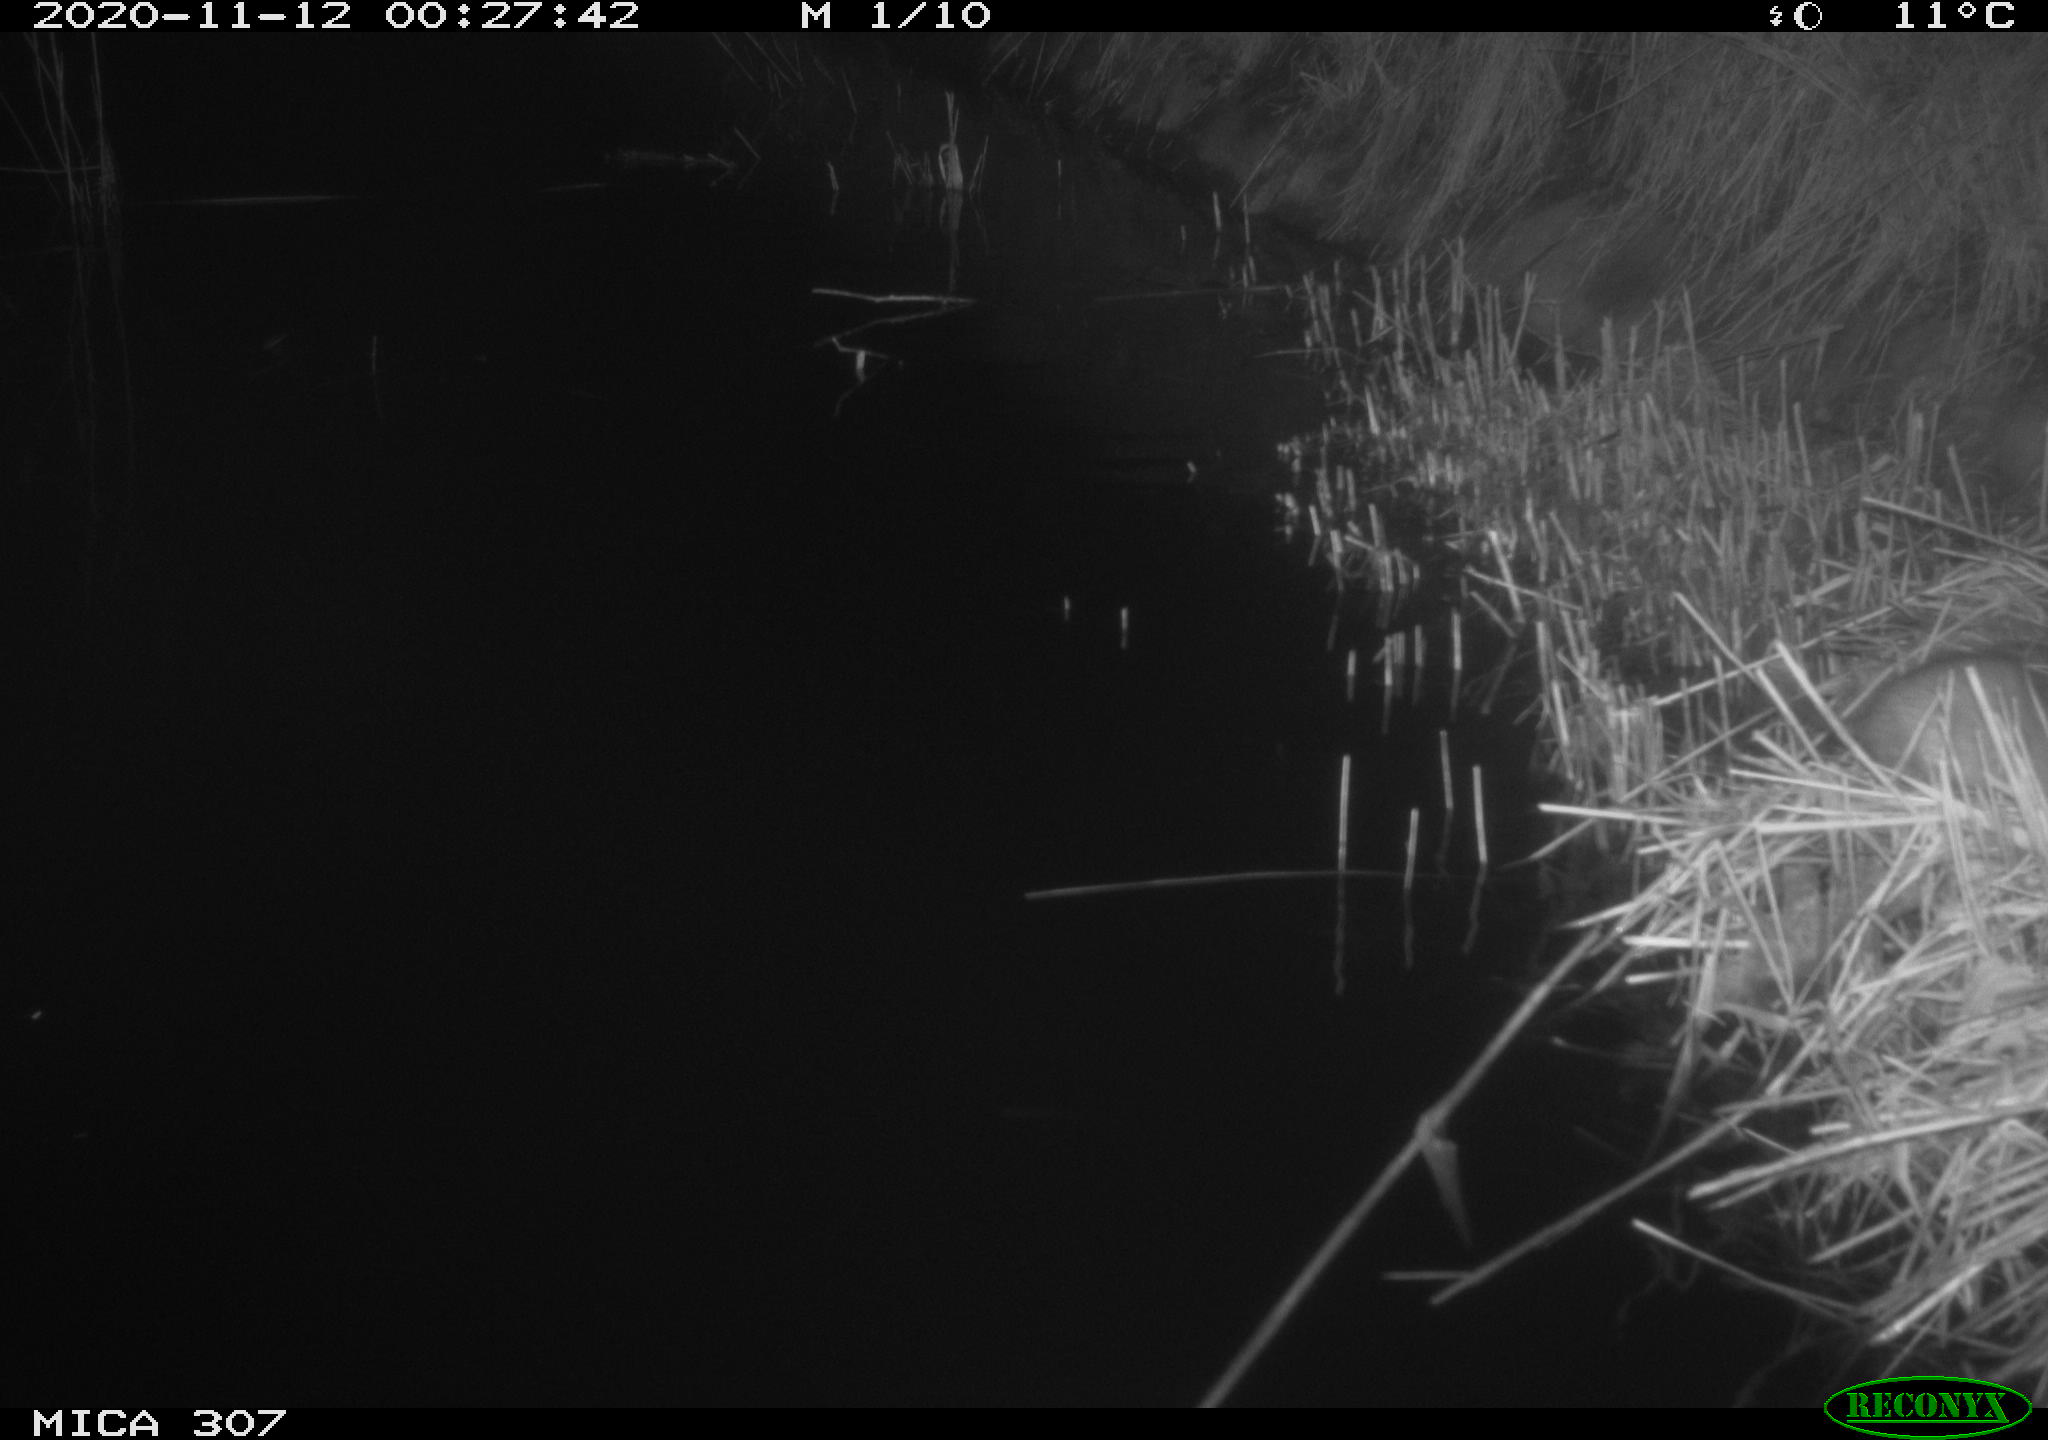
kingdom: Animalia
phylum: Chordata
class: Mammalia
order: Rodentia
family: Muridae
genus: Rattus
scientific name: Rattus norvegicus
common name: Brown rat
